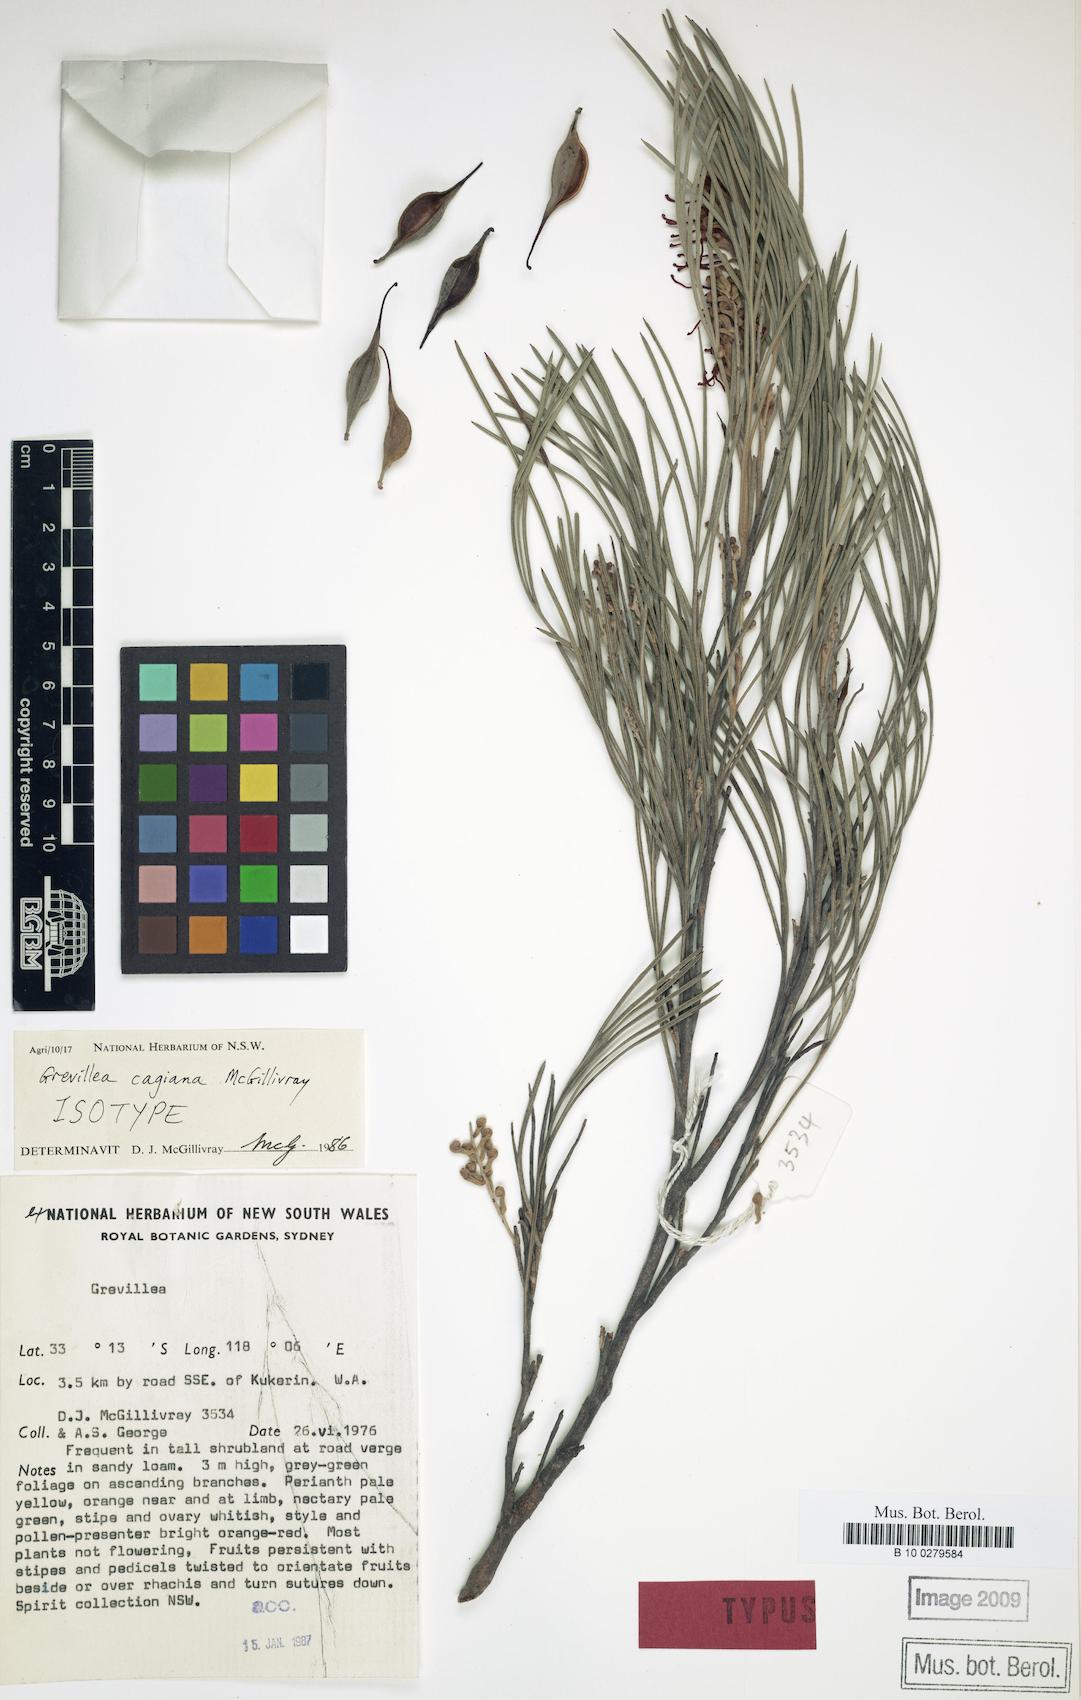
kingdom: Plantae
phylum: Tracheophyta
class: Magnoliopsida
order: Proteales
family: Proteaceae
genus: Grevillea
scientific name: Grevillea cagiana
